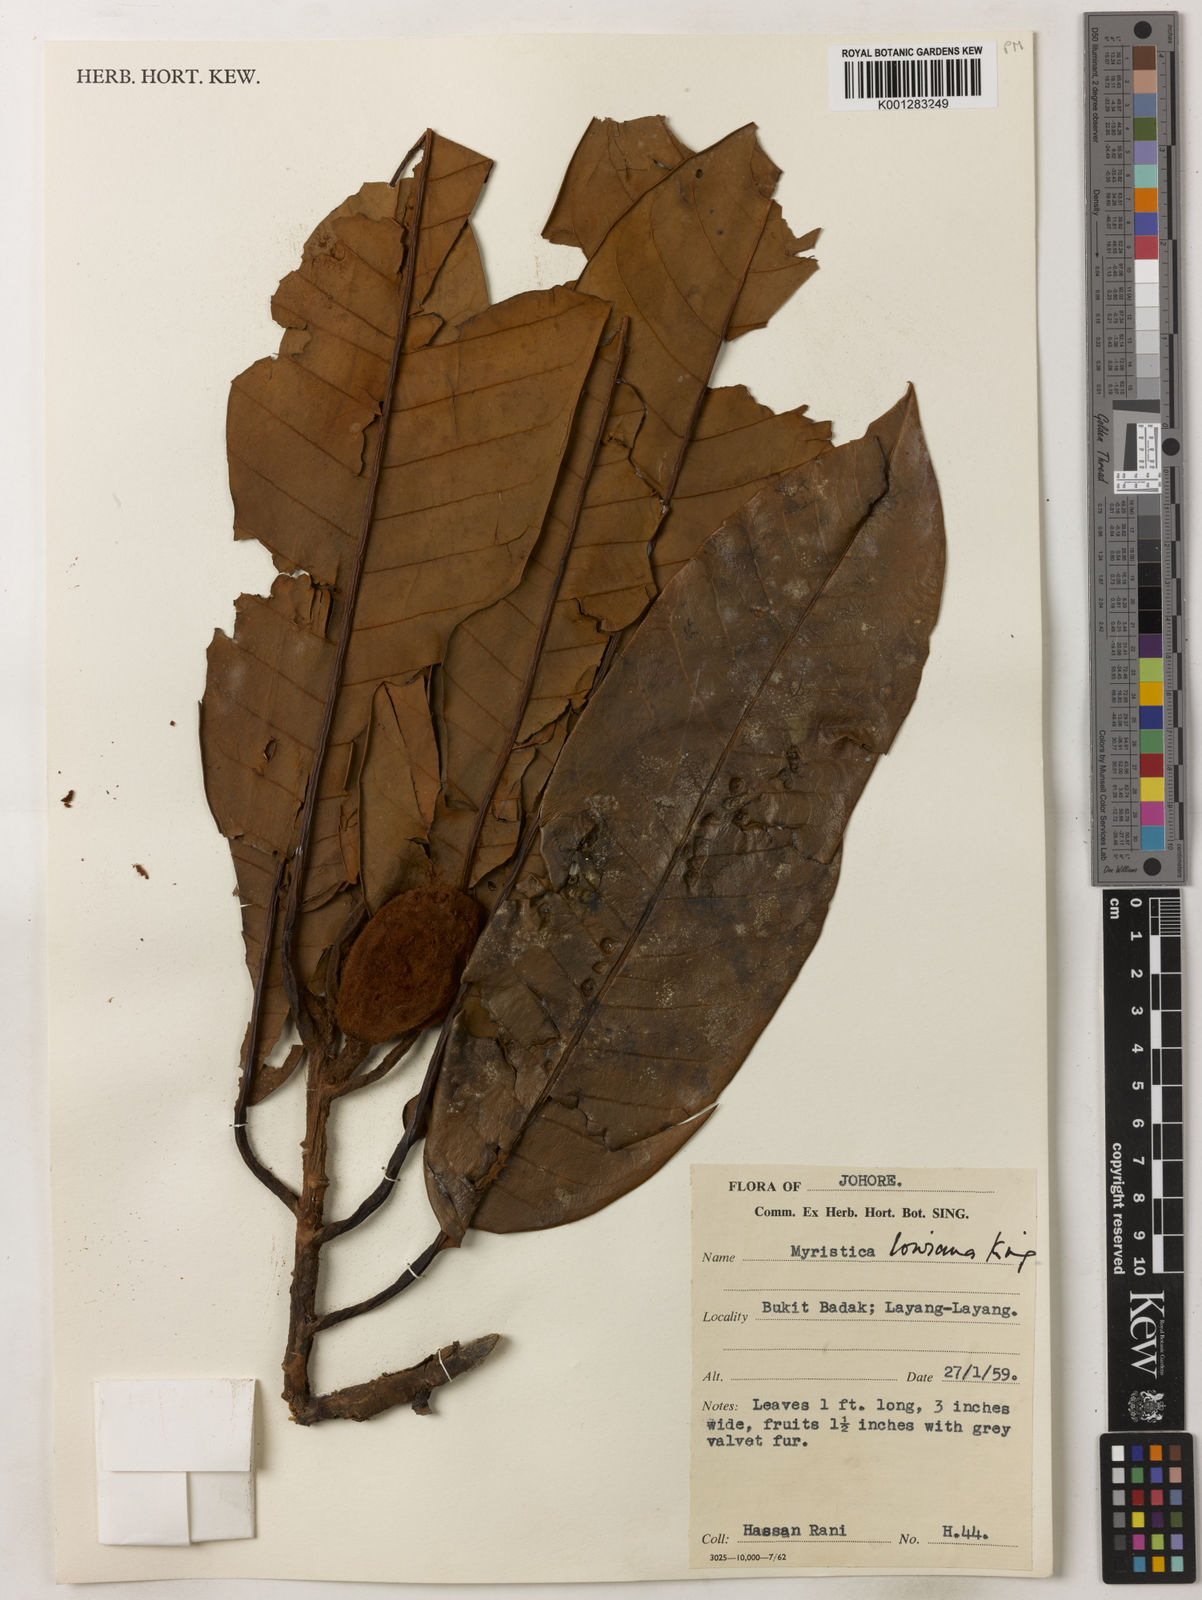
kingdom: Plantae
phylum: Tracheophyta
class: Magnoliopsida
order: Magnoliales
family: Myristicaceae
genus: Myristica
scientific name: Myristica lowiana
